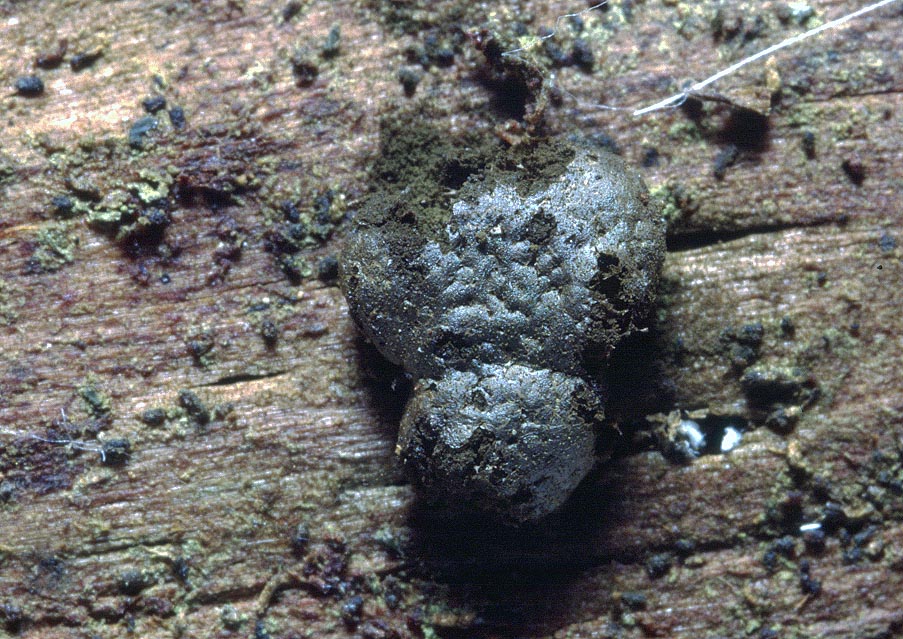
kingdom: Protozoa
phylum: Mycetozoa
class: Myxomycetes
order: Cribrariales
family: Tubiferaceae
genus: Licaethalium
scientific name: Licaethalium olivaceum
